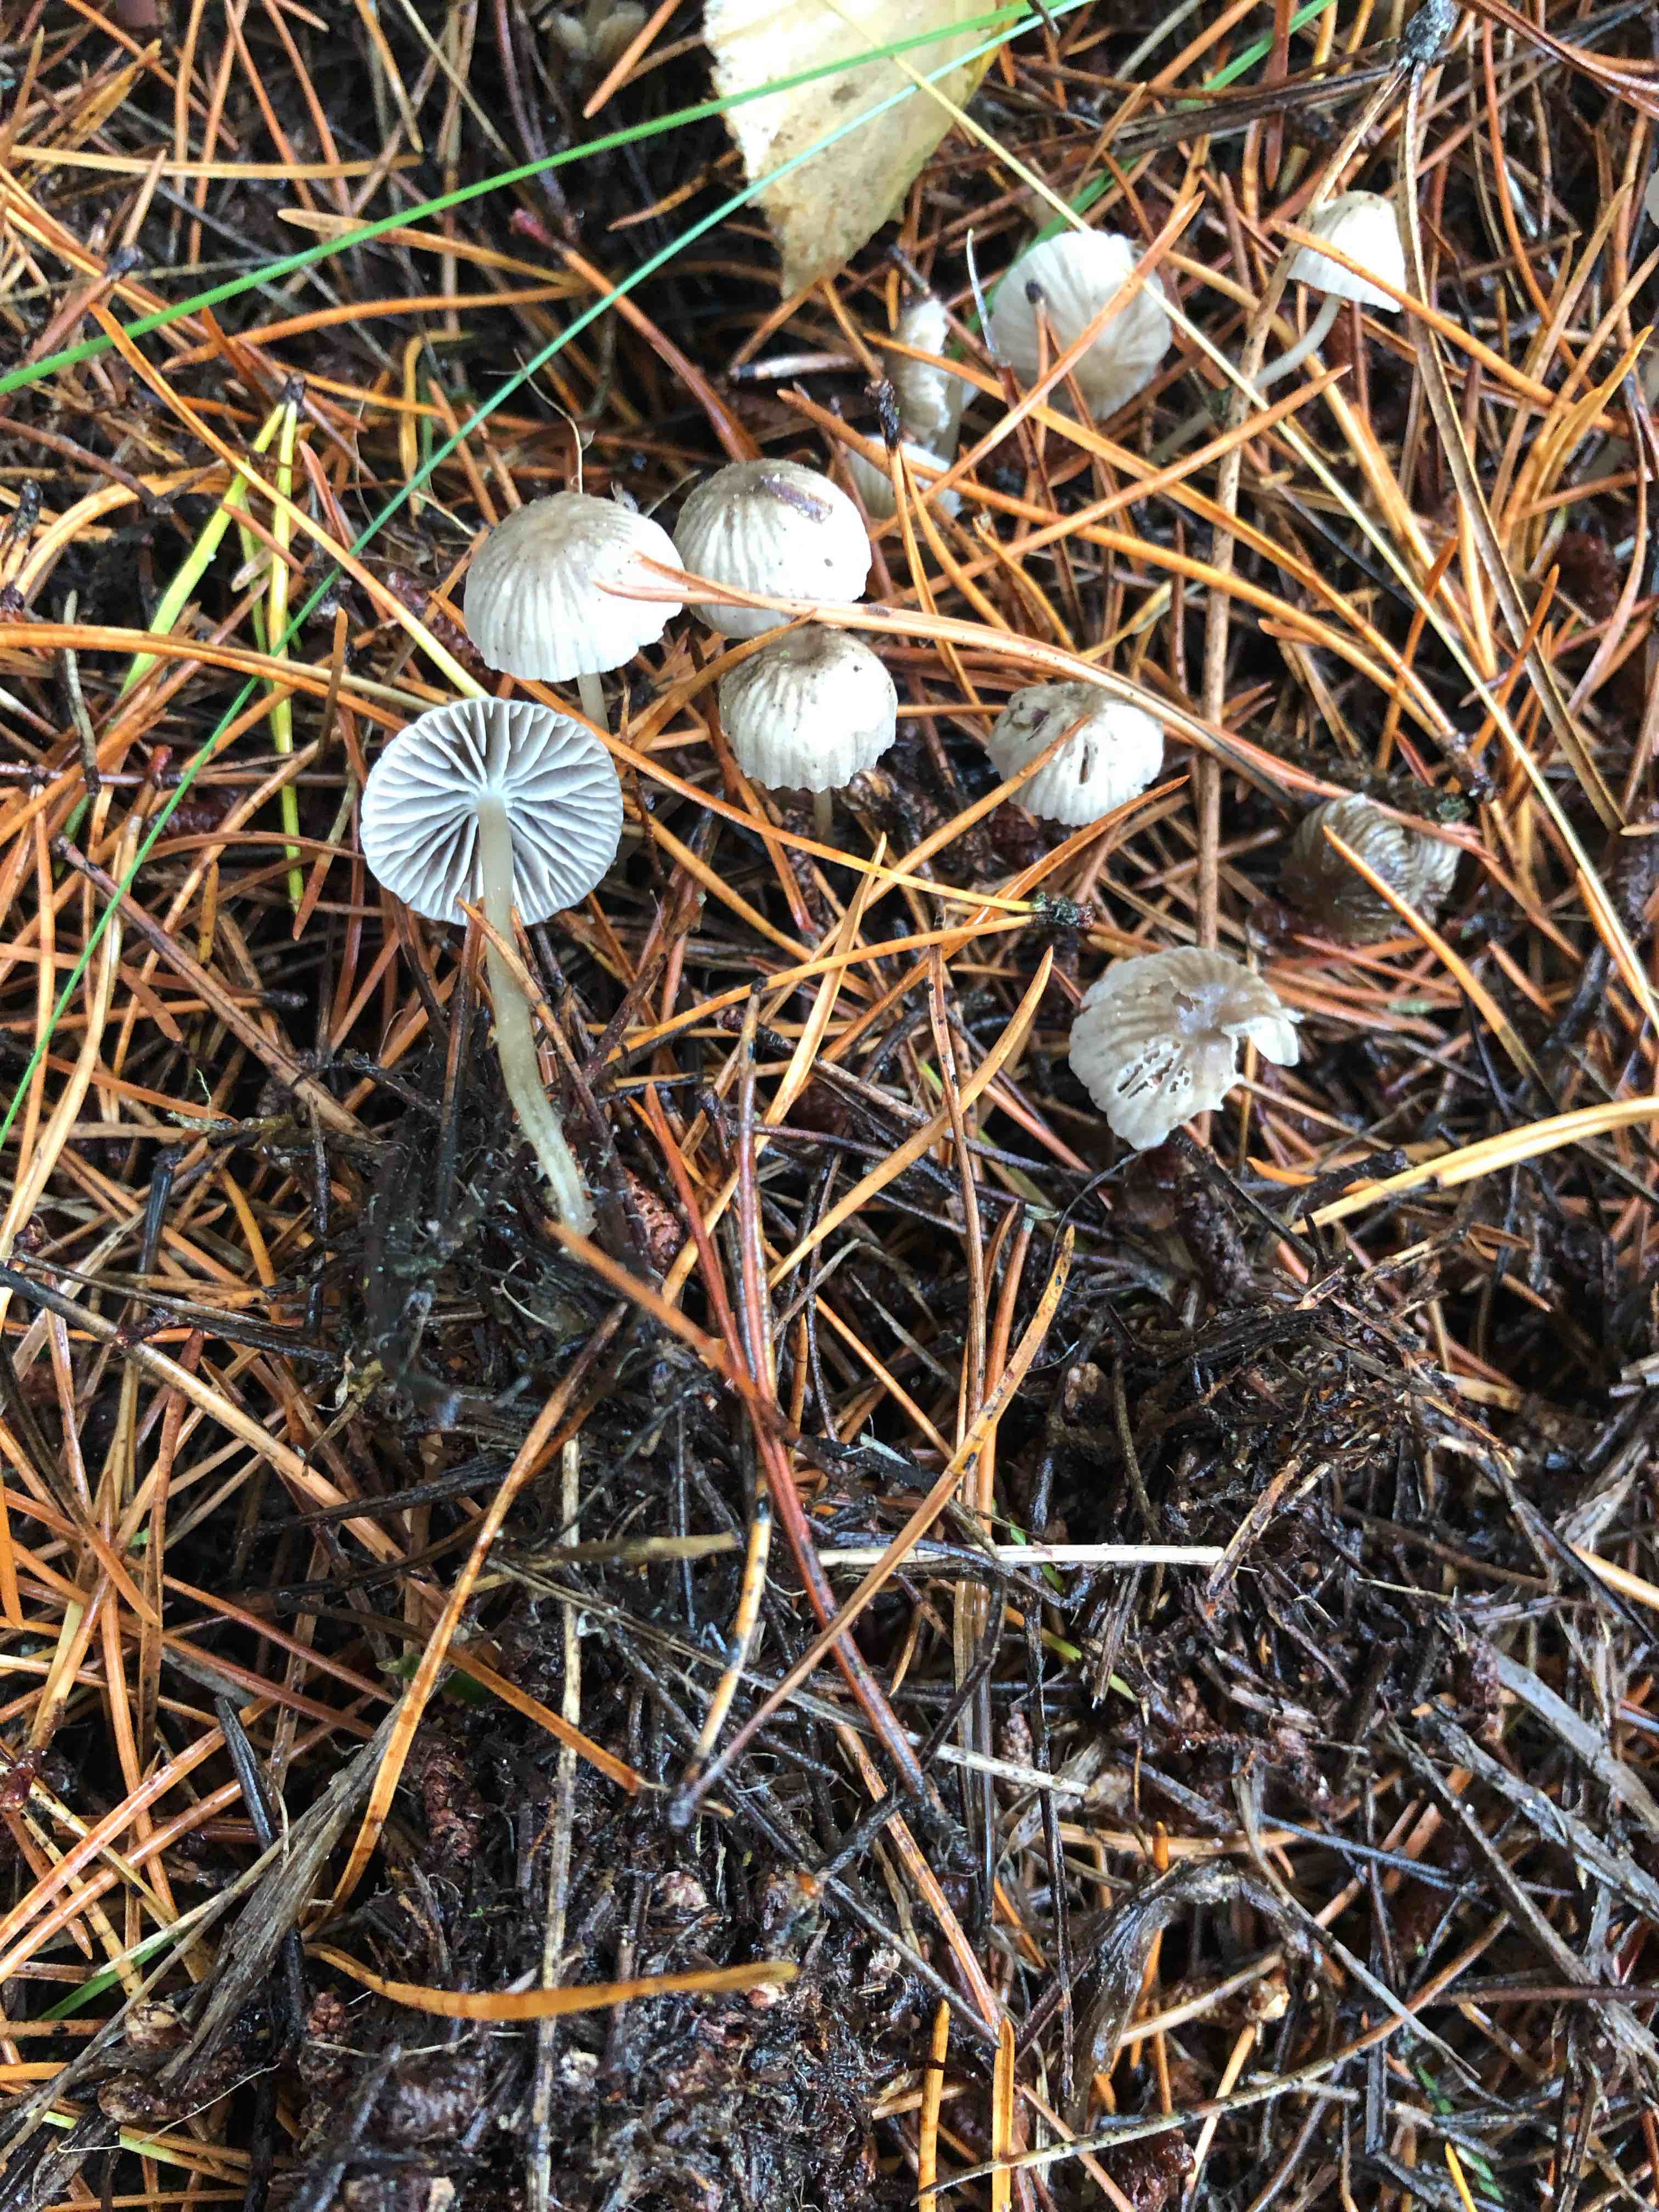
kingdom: Fungi
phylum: Basidiomycota
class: Agaricomycetes
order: Agaricales
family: Mycenaceae
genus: Mycena
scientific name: Mycena vulgaris
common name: klæbrig huesvamp
